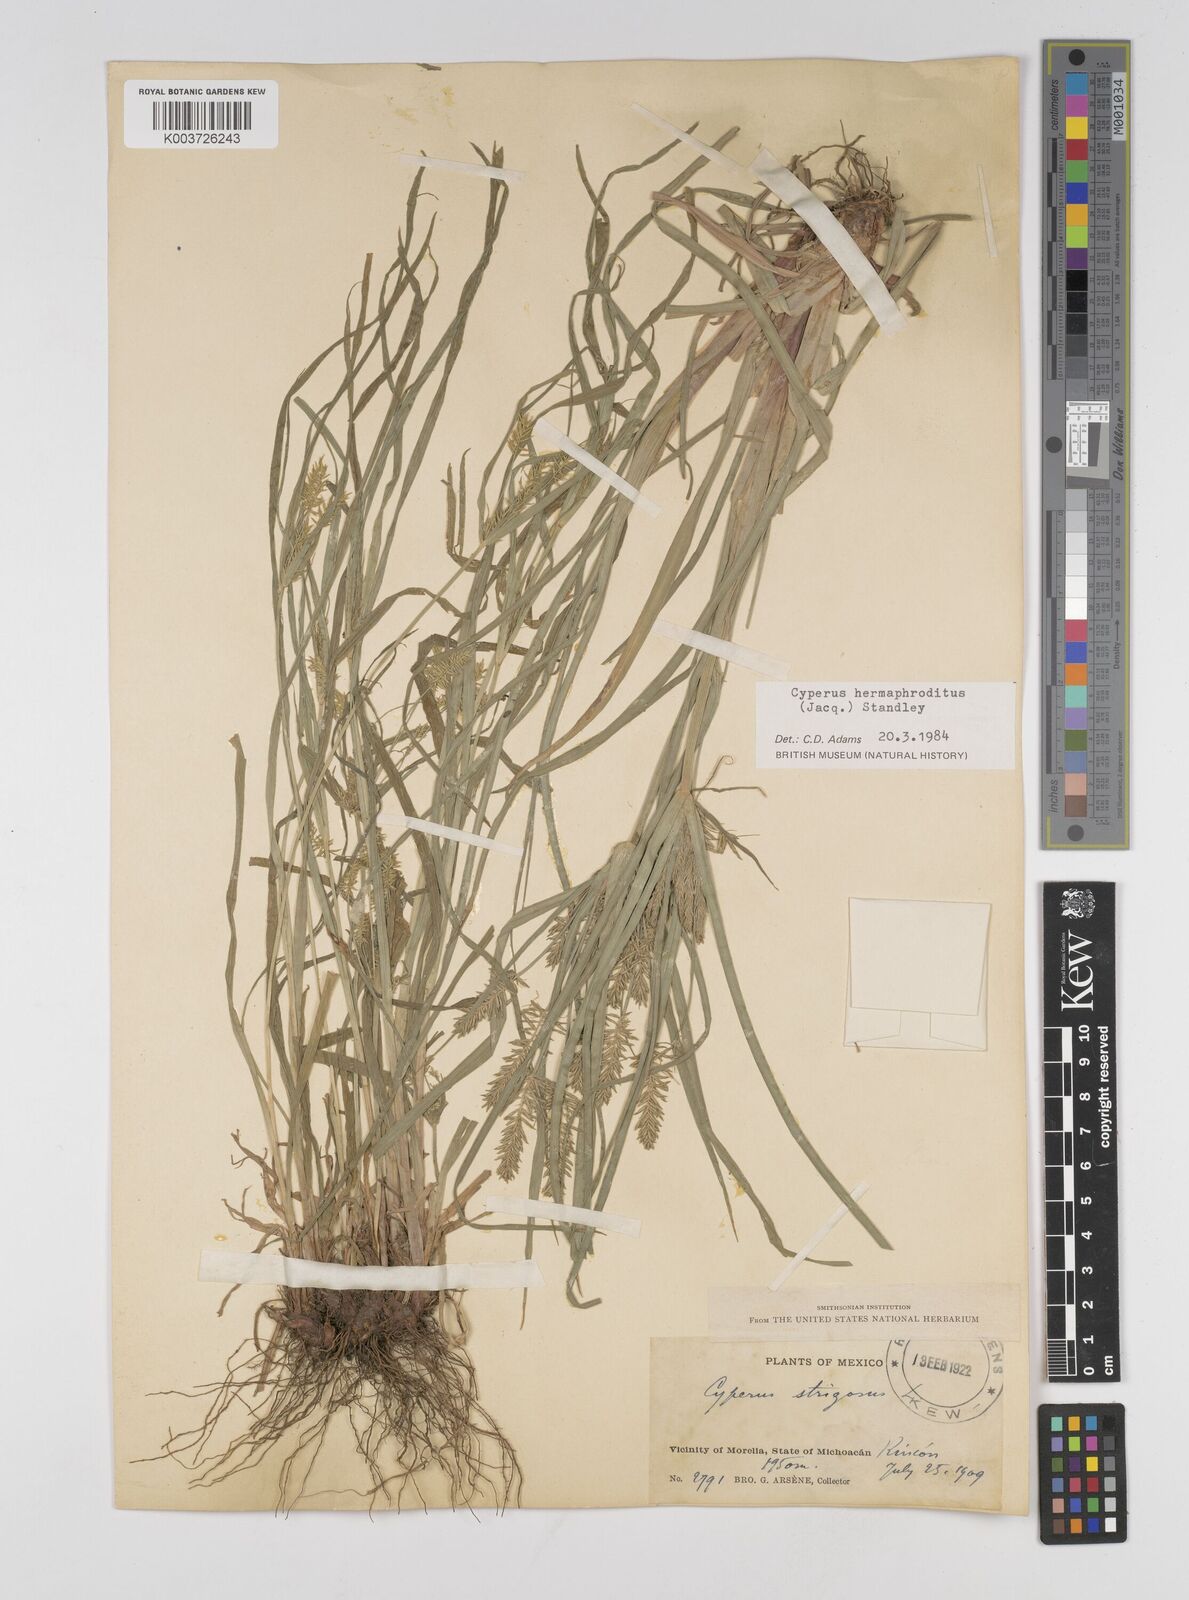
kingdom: Plantae
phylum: Tracheophyta
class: Liliopsida
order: Poales
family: Cyperaceae
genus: Cyperus
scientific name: Cyperus hermaphroditus
